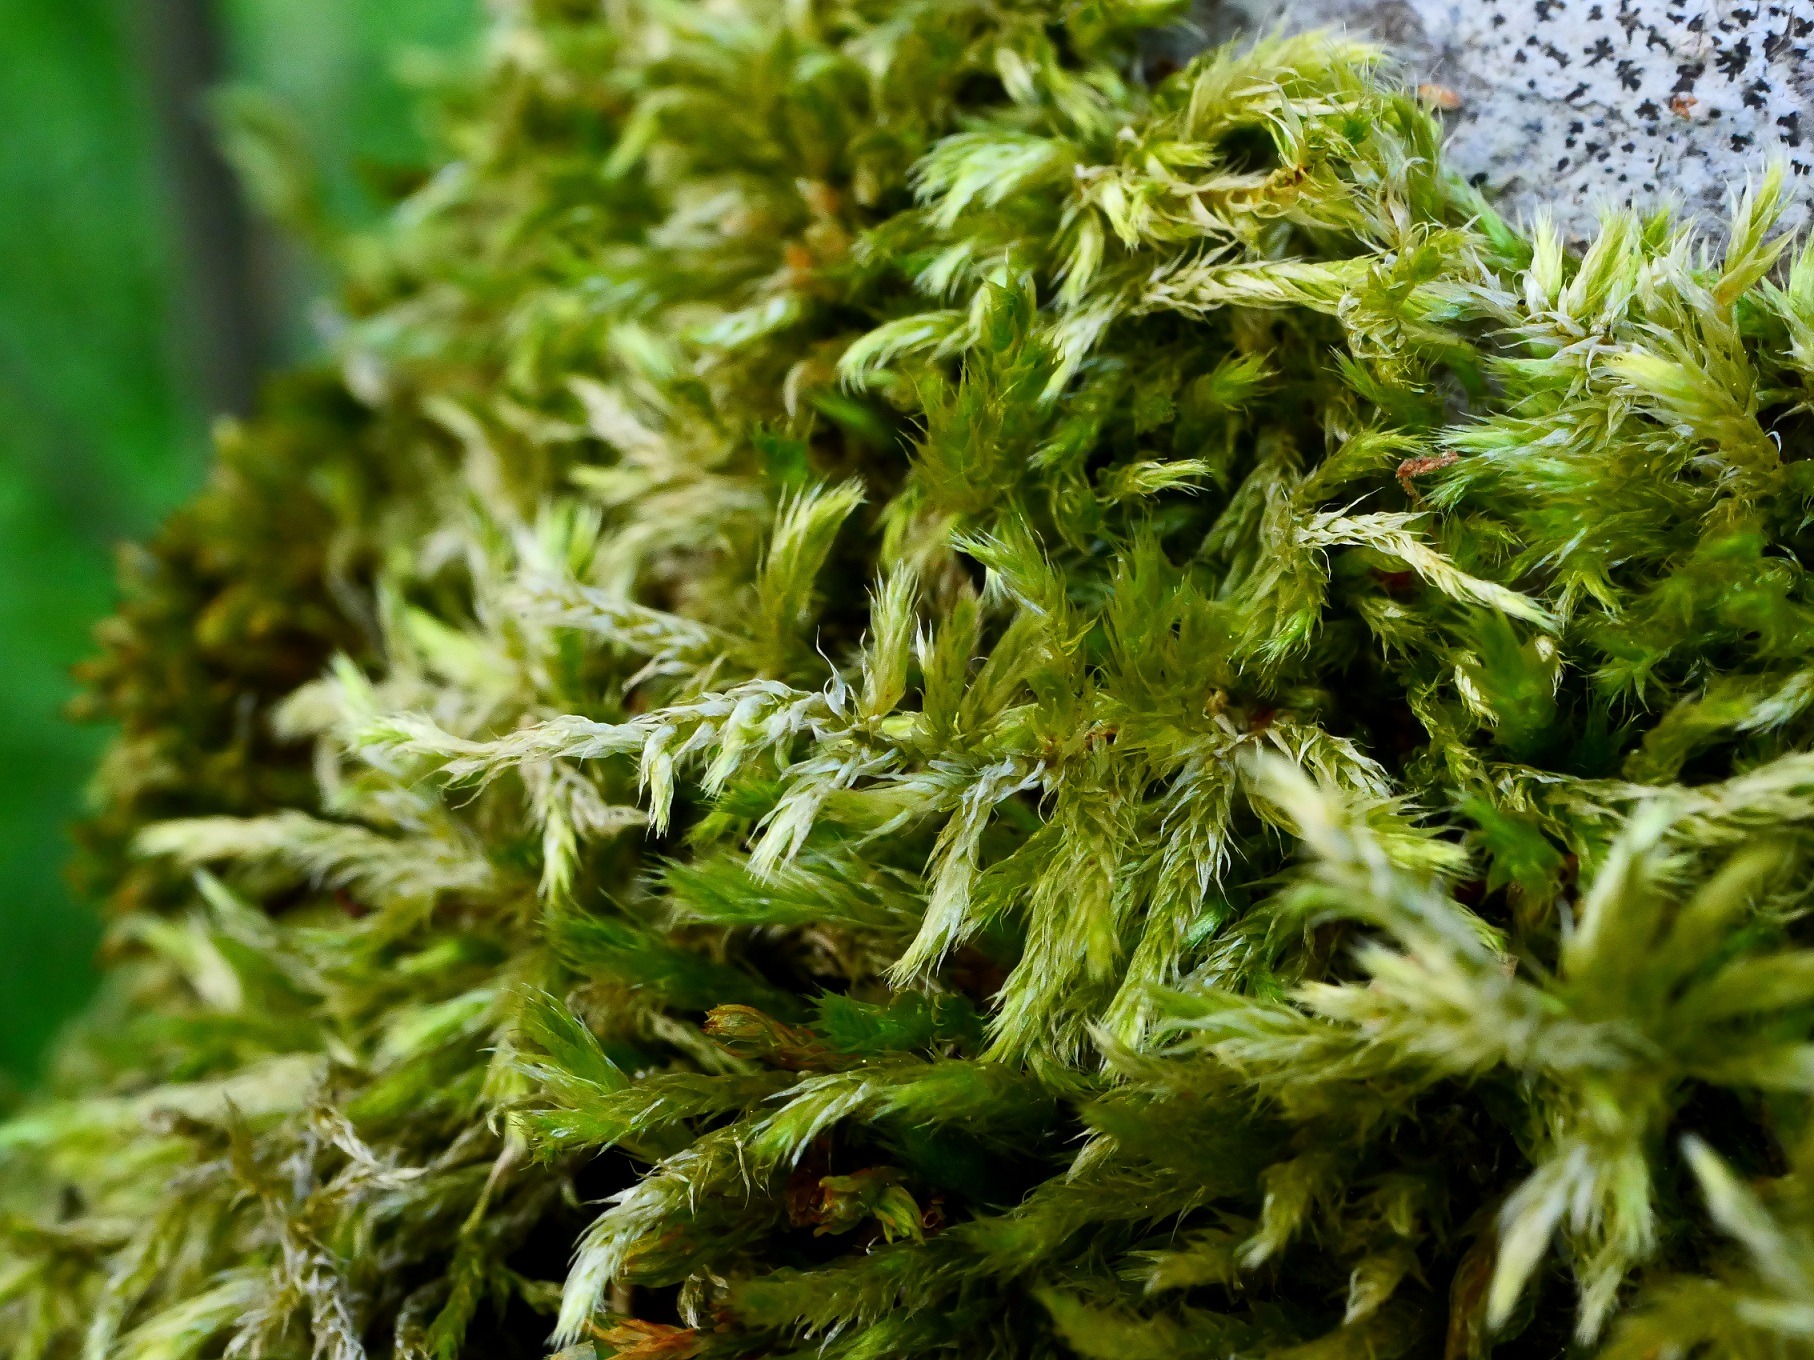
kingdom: Plantae
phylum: Bryophyta
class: Bryopsida
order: Hypnales
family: Brachytheciaceae
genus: Brachythecium
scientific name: Brachythecium salebrosum
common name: Skov-kortkapsel
